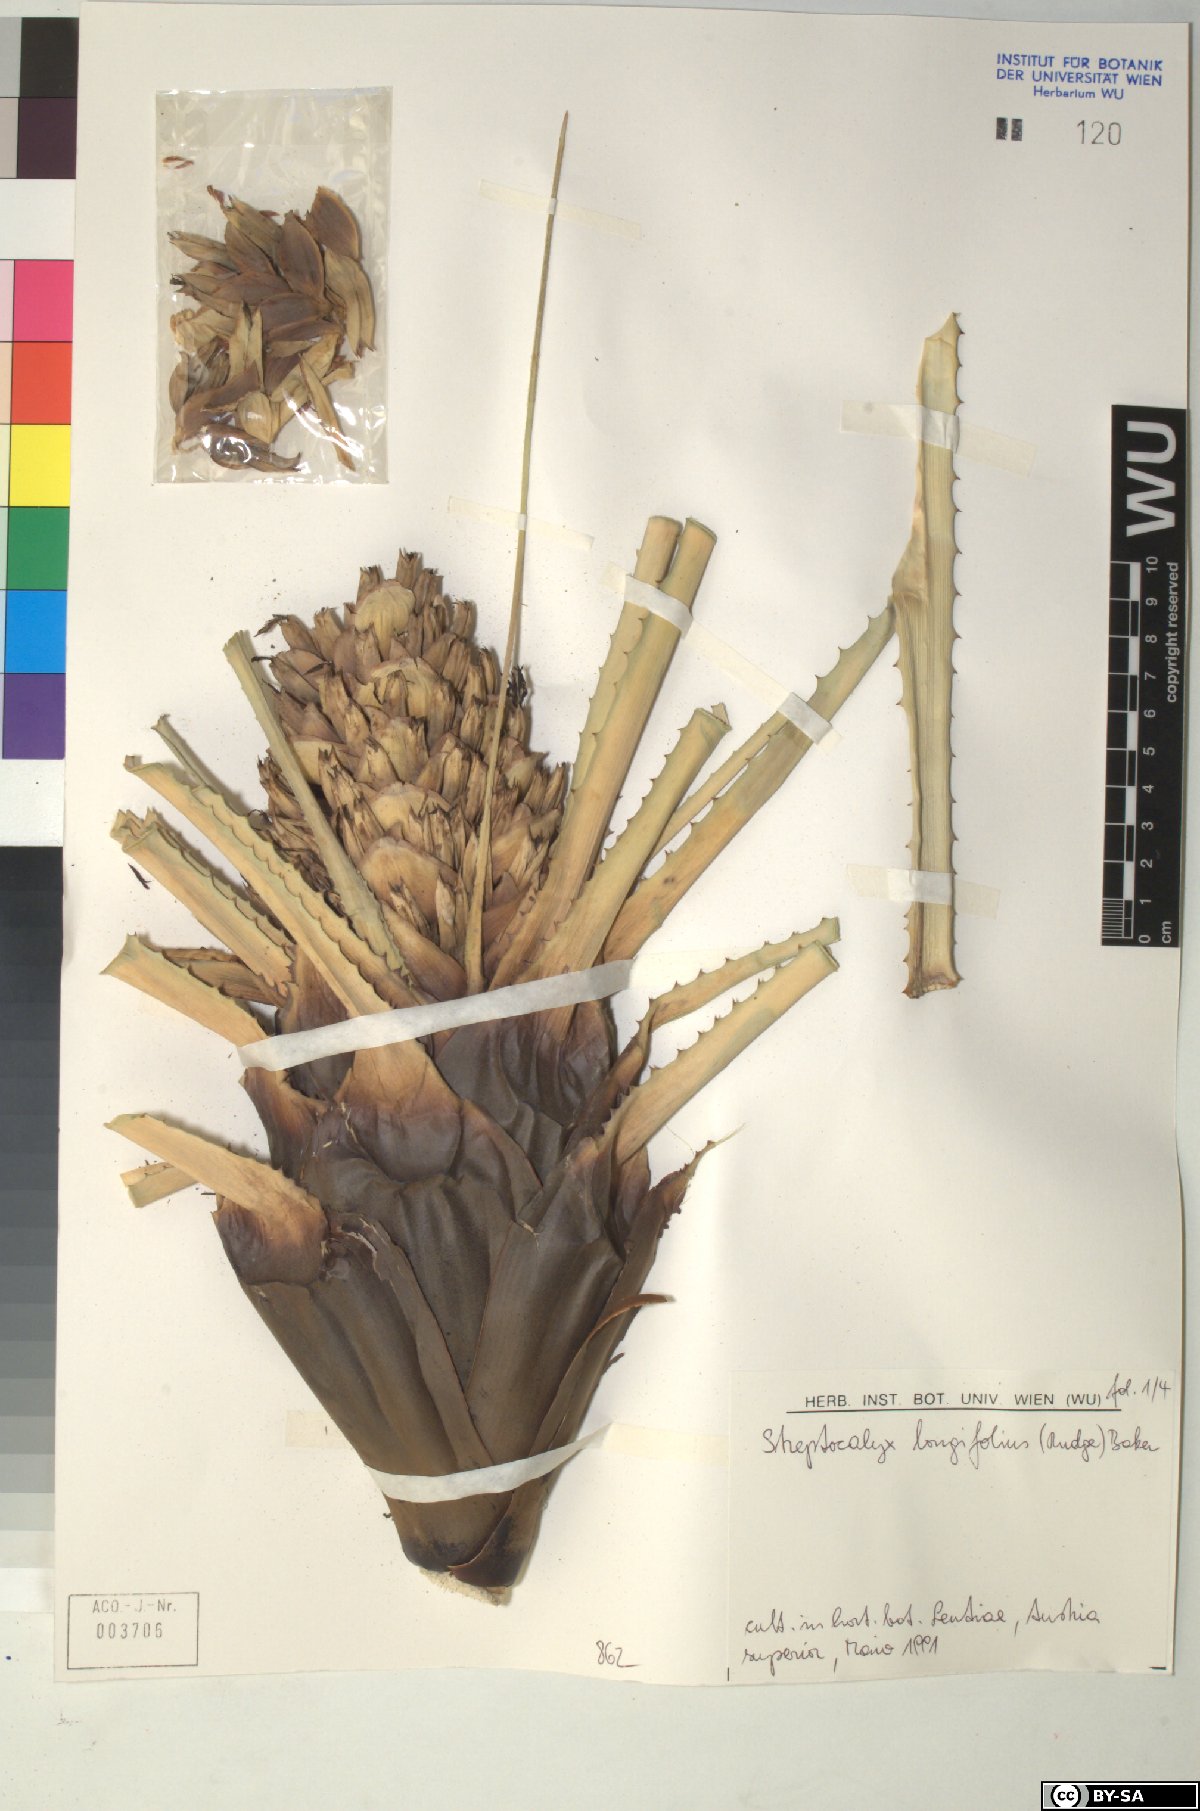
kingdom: Plantae
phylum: Tracheophyta
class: Liliopsida
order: Poales
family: Bromeliaceae
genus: Aechmea
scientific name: Aechmea
